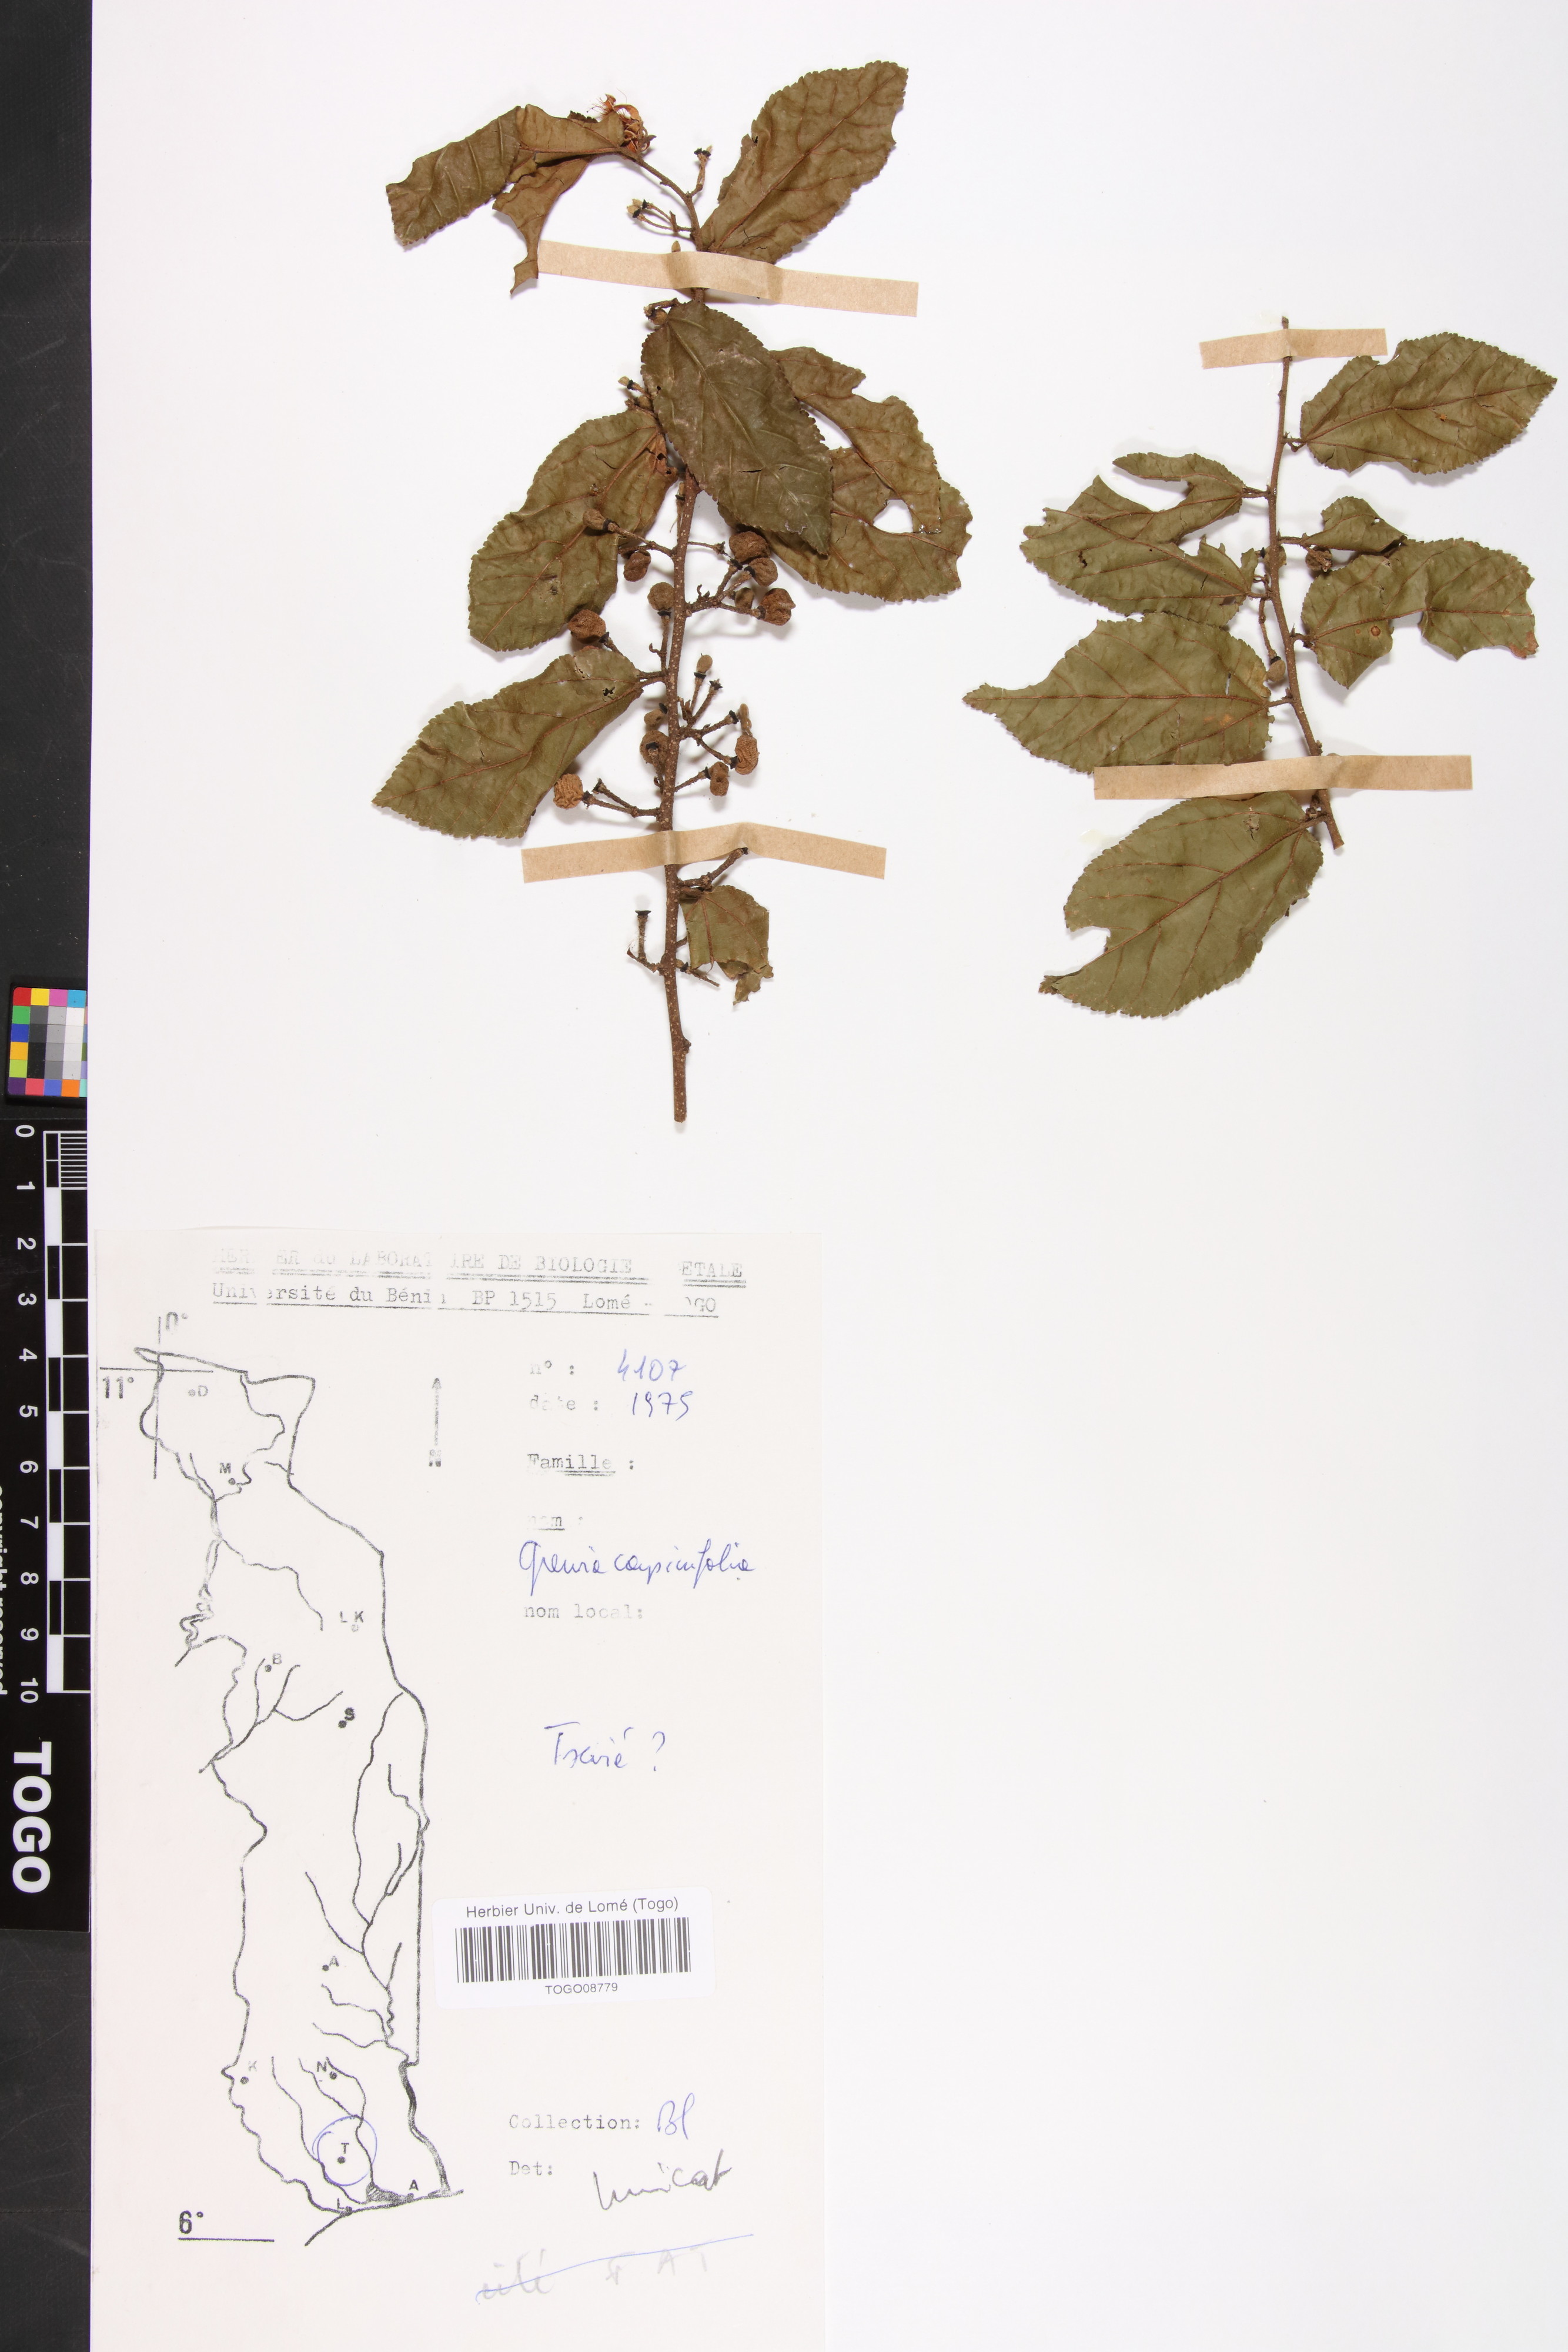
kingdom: Plantae
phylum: Tracheophyta
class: Magnoliopsida
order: Malvales
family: Malvaceae
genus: Grewia
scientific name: Grewia carpinifolia
